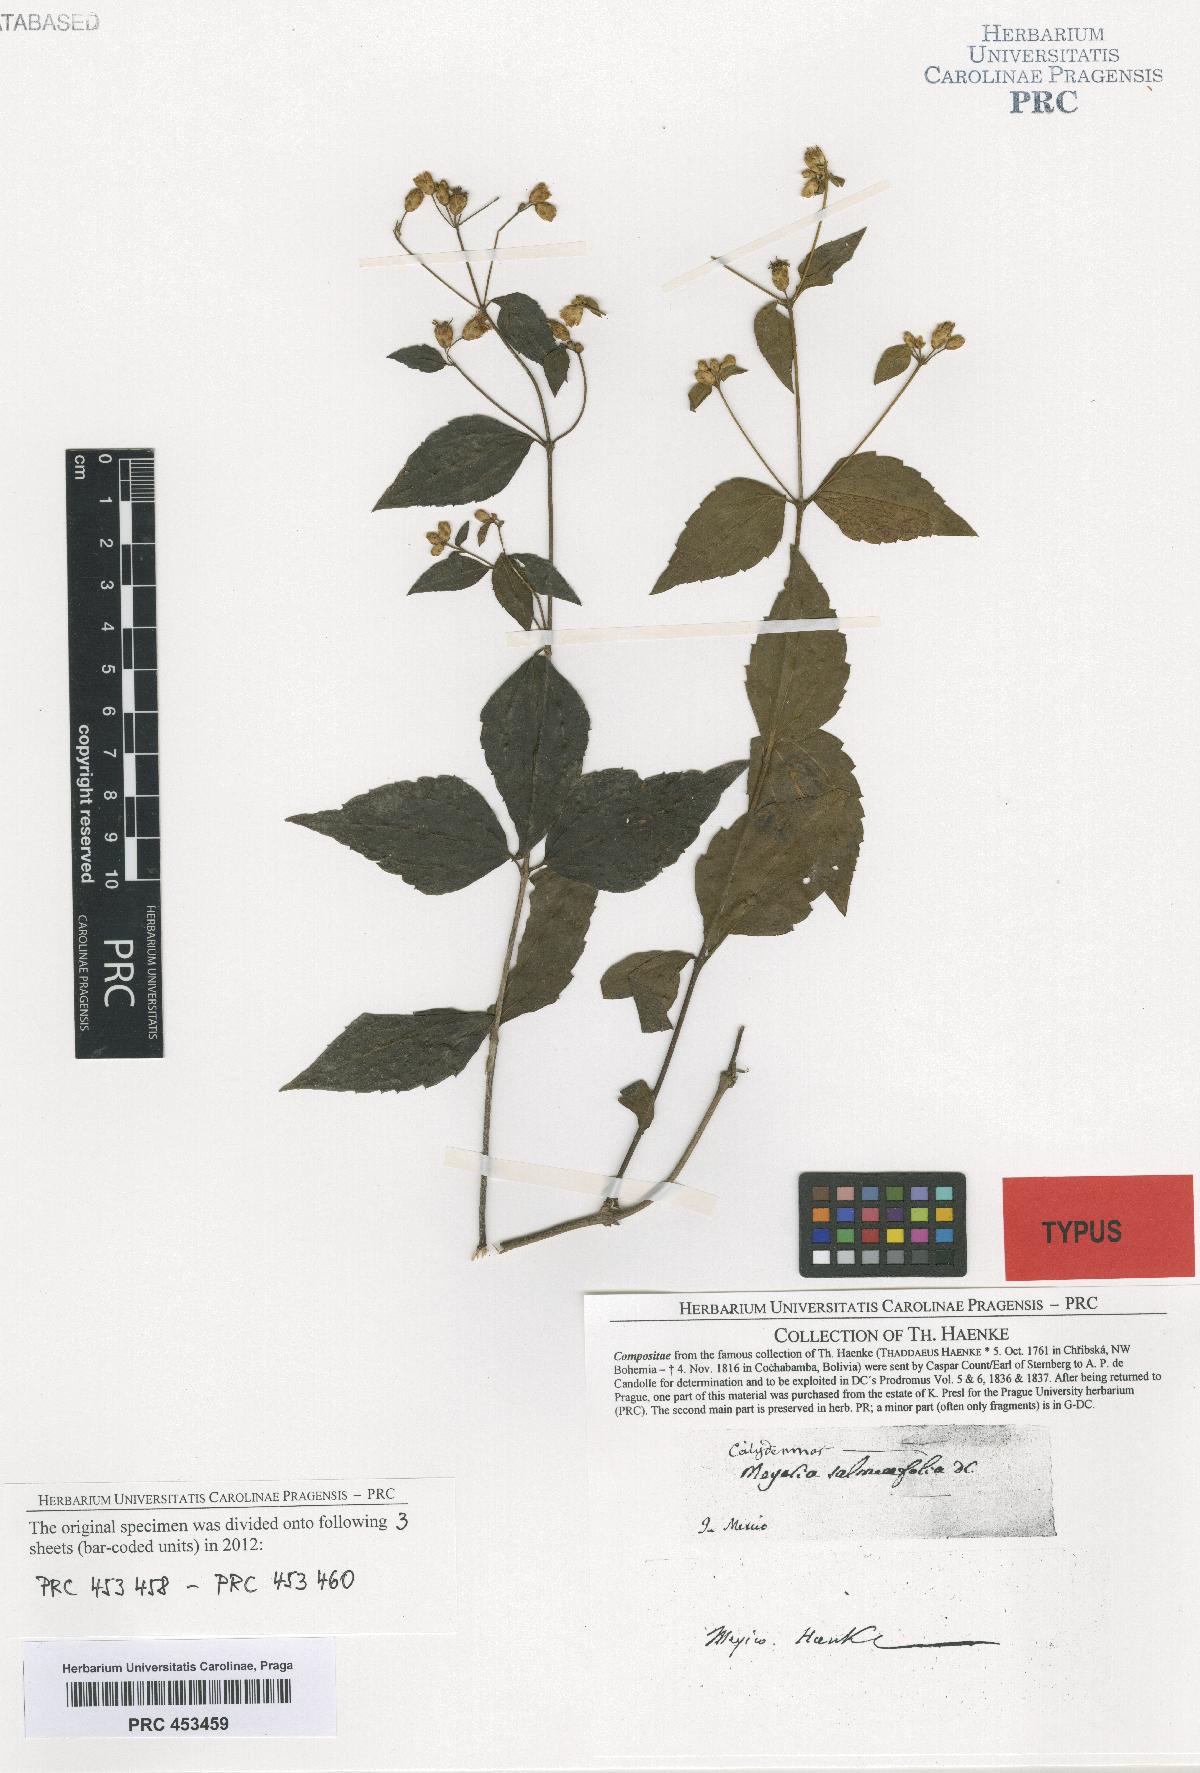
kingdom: Plantae
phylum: Tracheophyta
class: Magnoliopsida
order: Asterales
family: Asteraceae
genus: Calea
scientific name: Calea ternifolia
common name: Mexican calea
